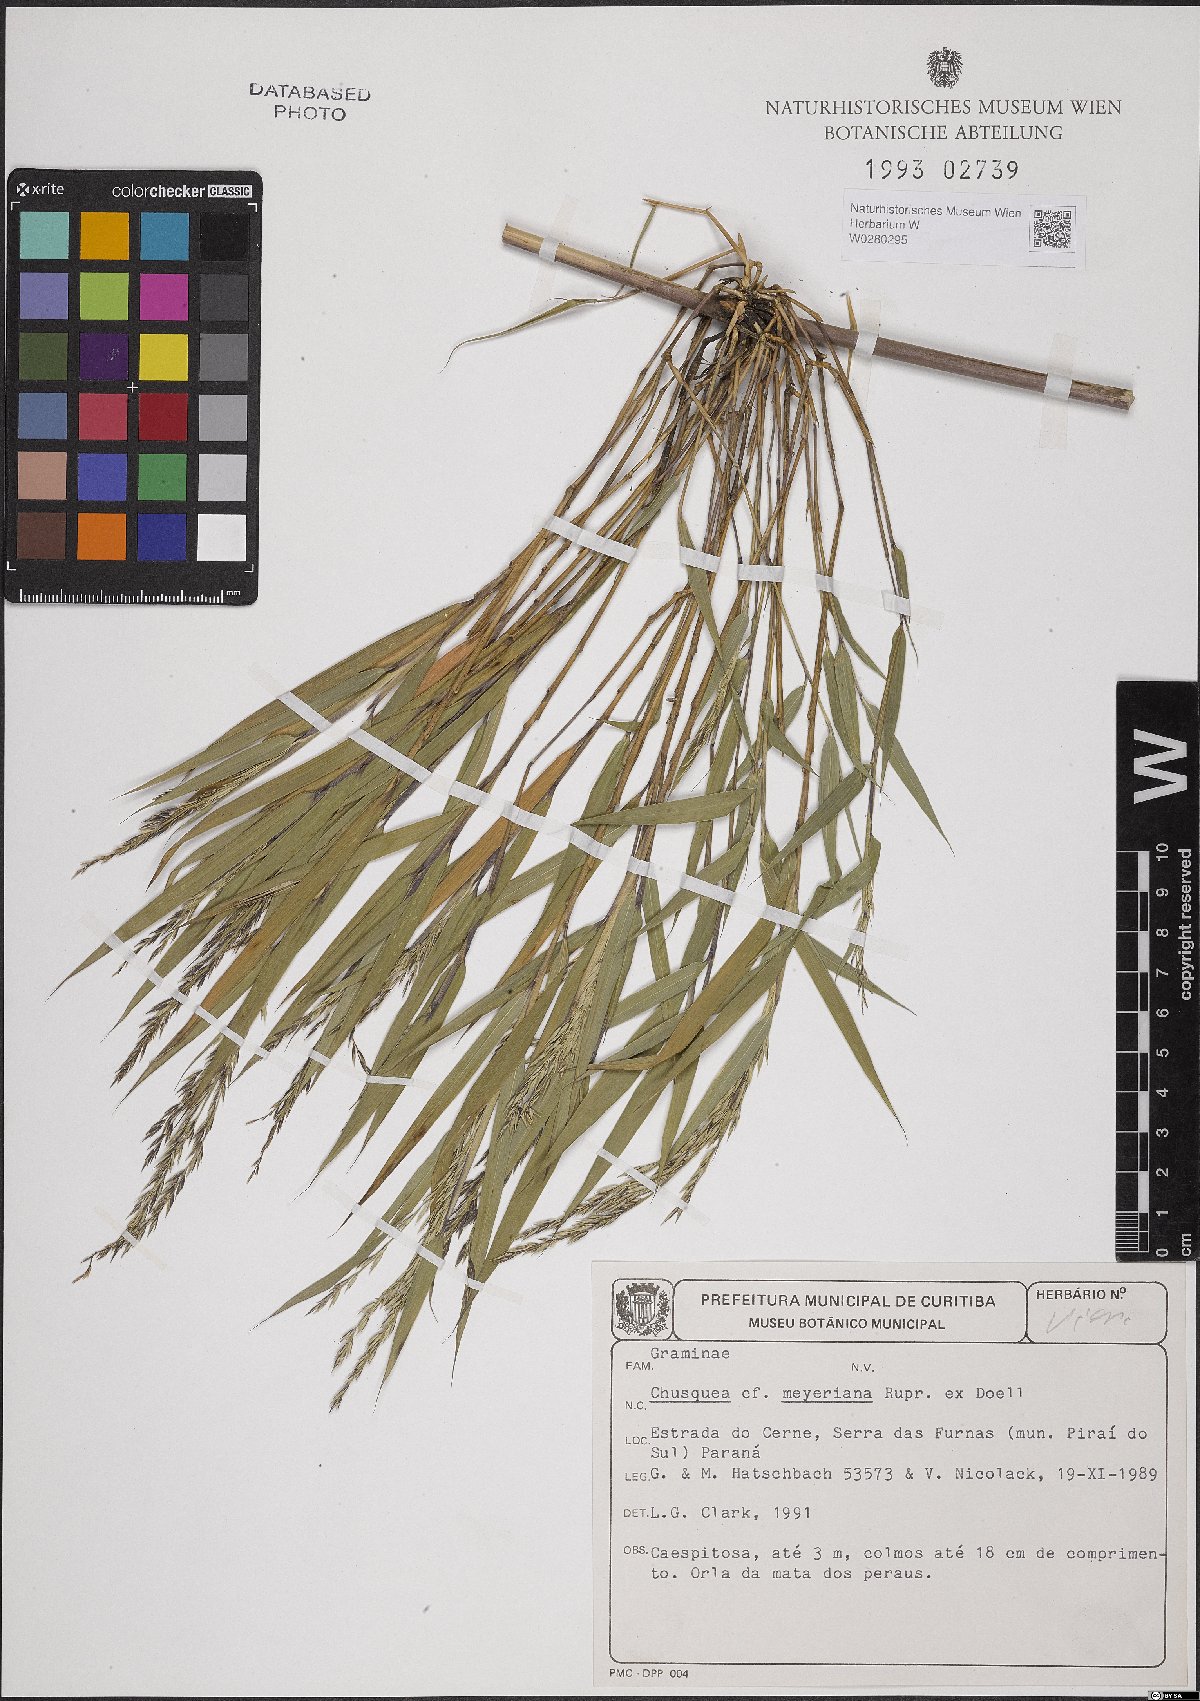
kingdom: Plantae
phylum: Tracheophyta
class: Liliopsida
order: Poales
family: Poaceae
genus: Chusquea
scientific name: Chusquea
